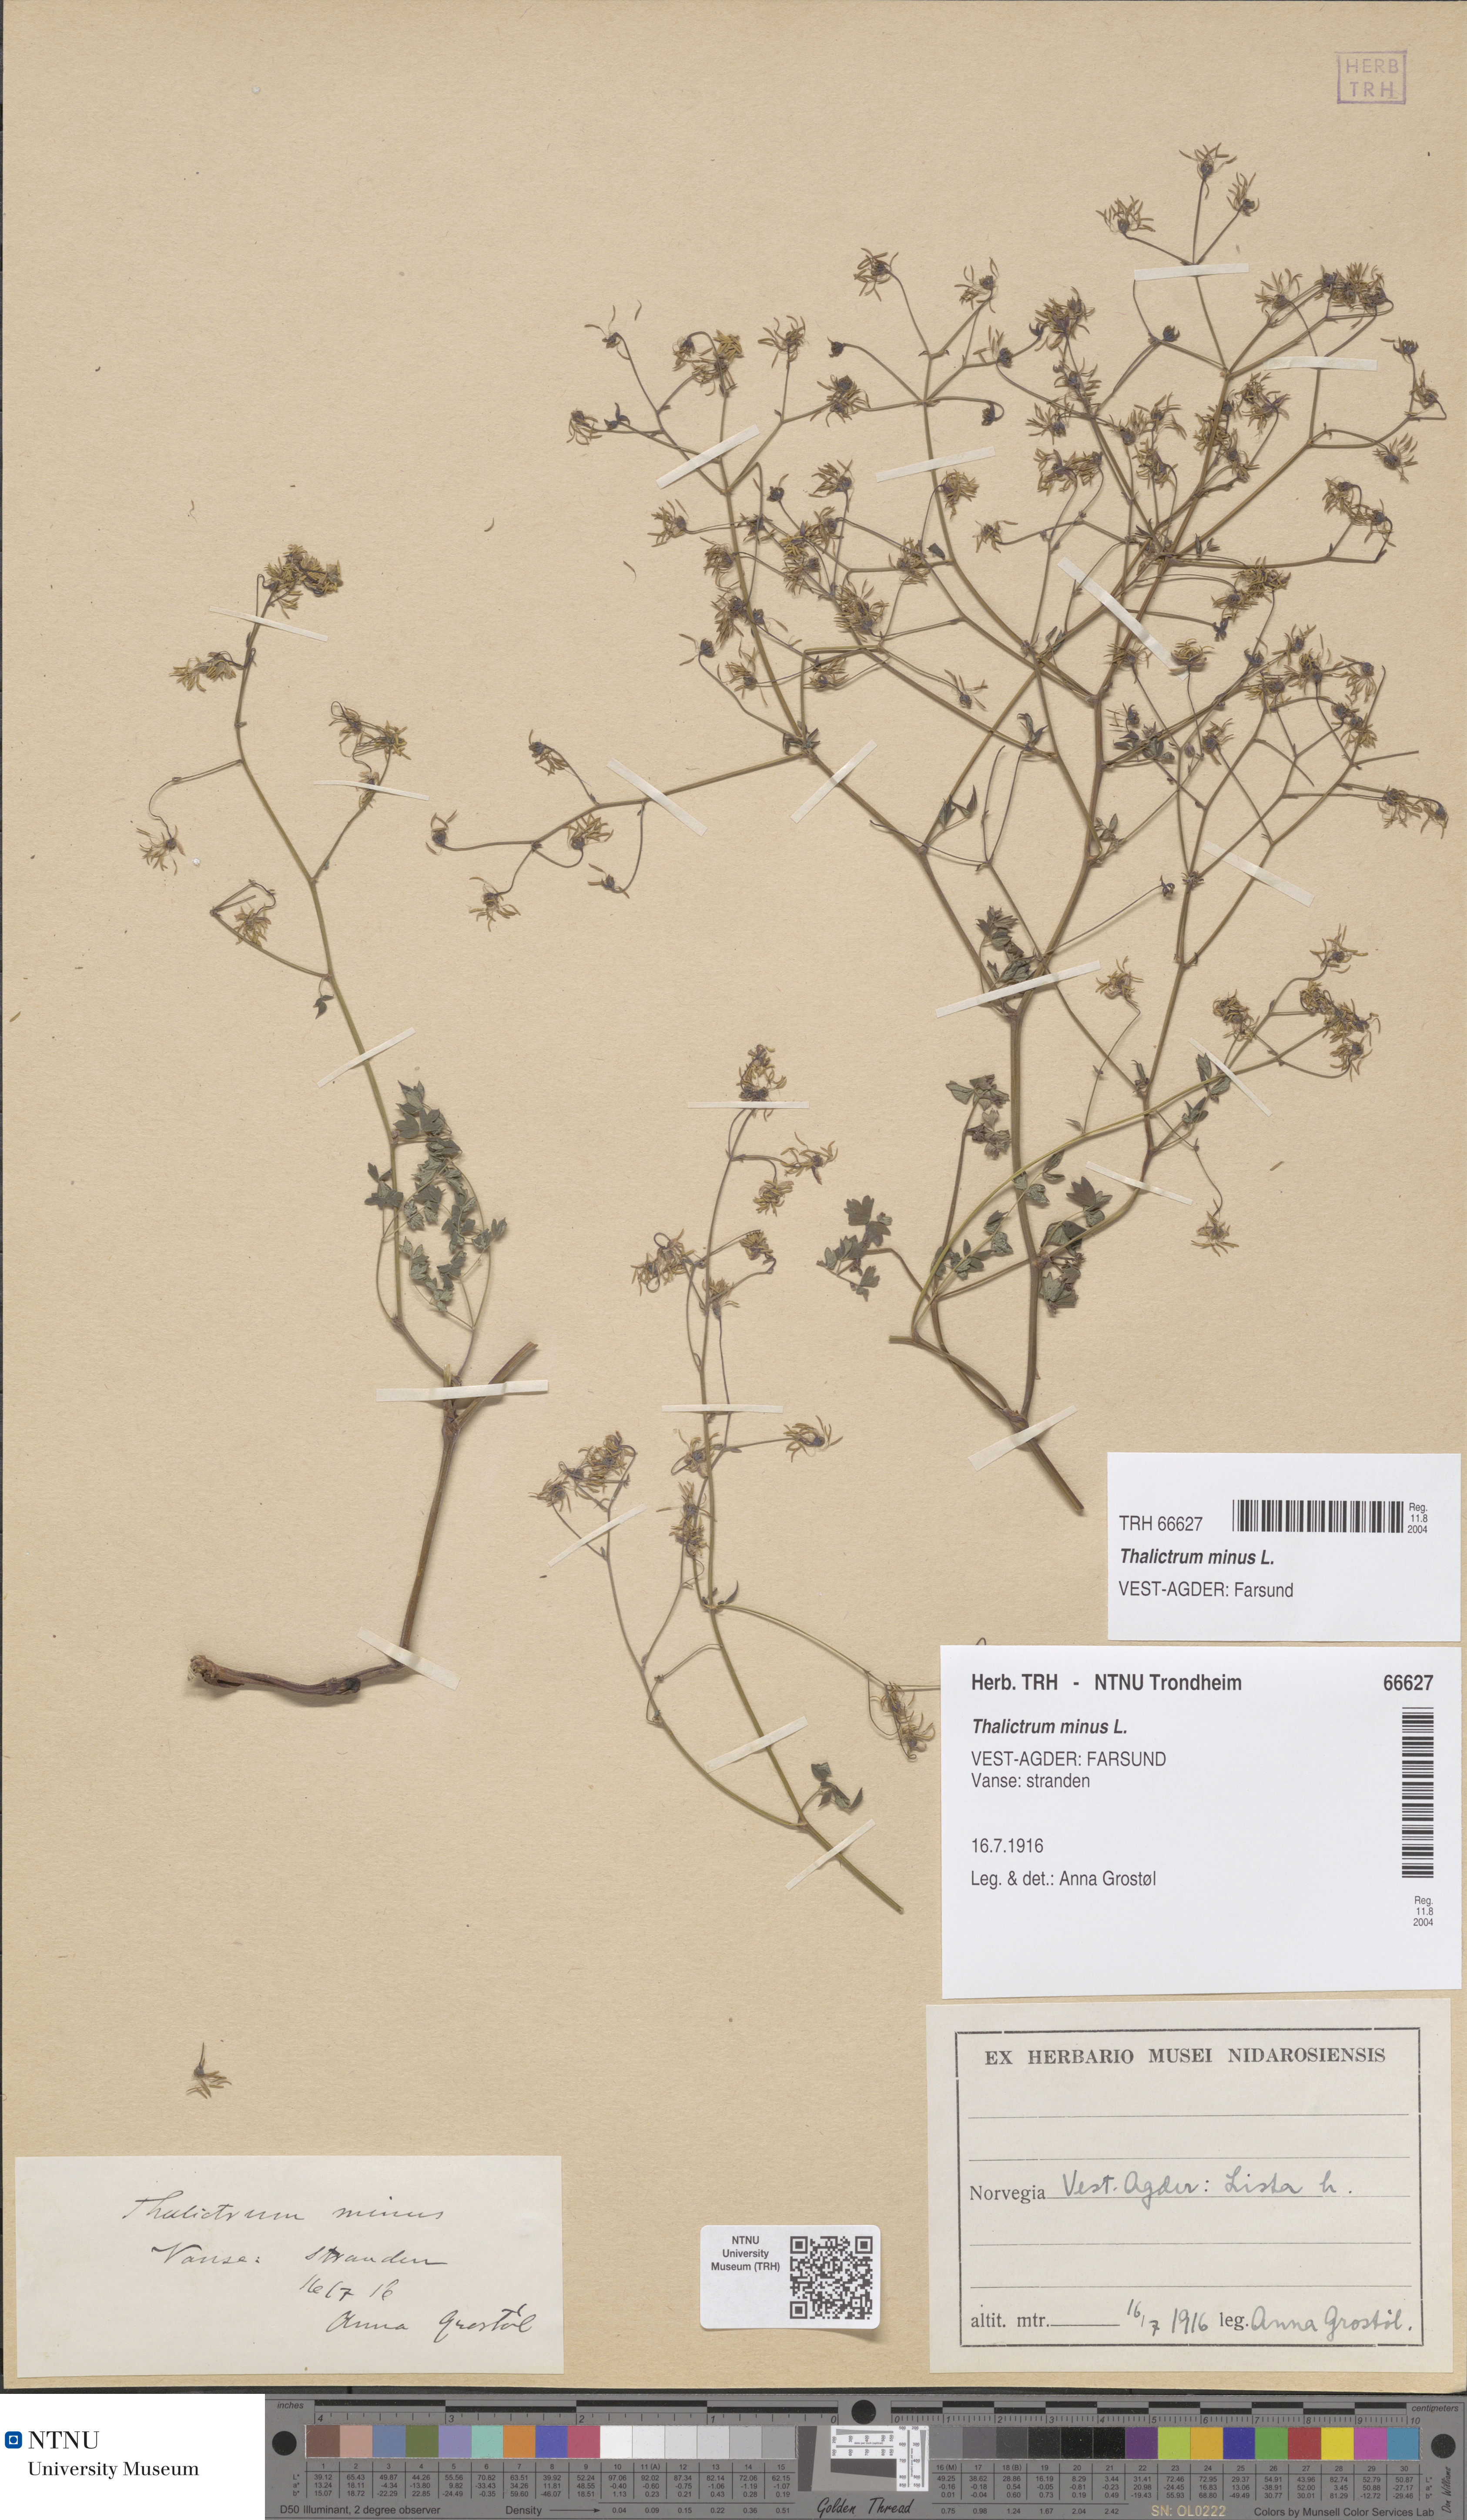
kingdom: Plantae
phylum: Tracheophyta
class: Magnoliopsida
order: Ranunculales
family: Ranunculaceae
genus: Thalictrum
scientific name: Thalictrum minus
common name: Lesser meadow-rue
